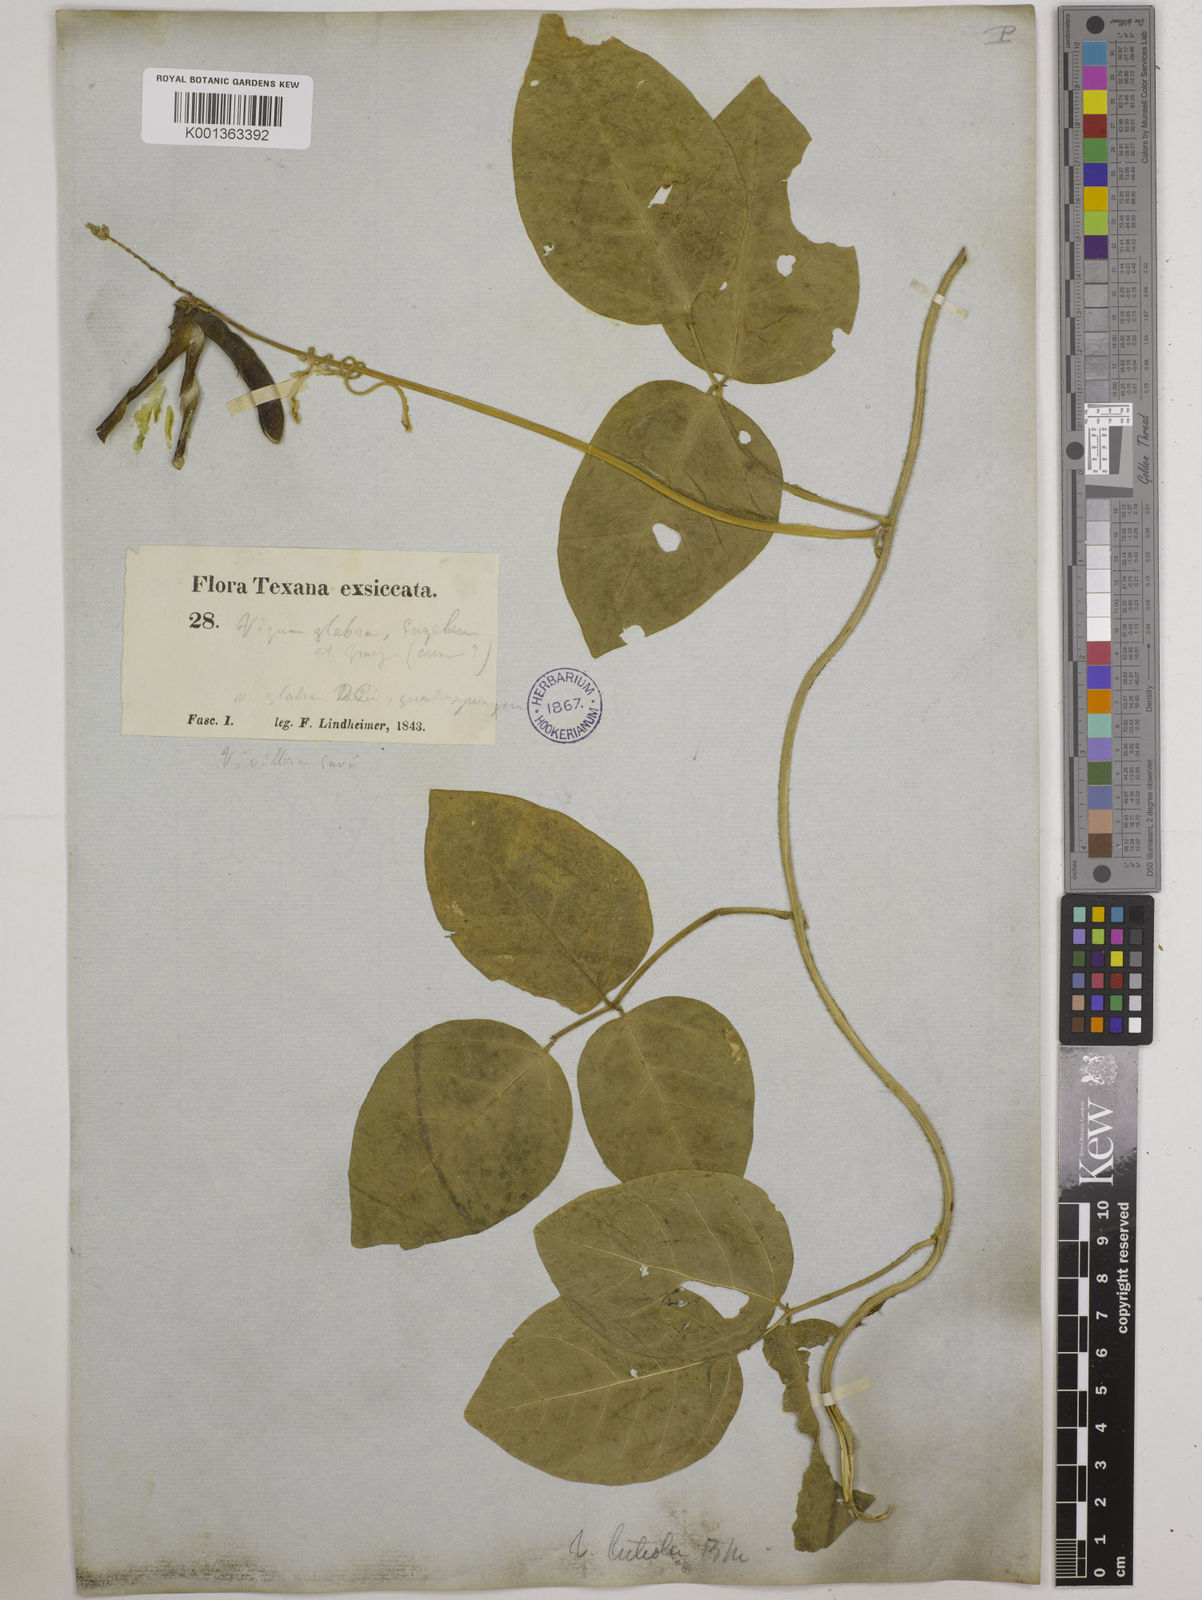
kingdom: Plantae
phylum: Tracheophyta
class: Magnoliopsida
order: Fabales
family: Fabaceae
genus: Vigna
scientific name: Vigna luteola
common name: Hairypod cowpea
